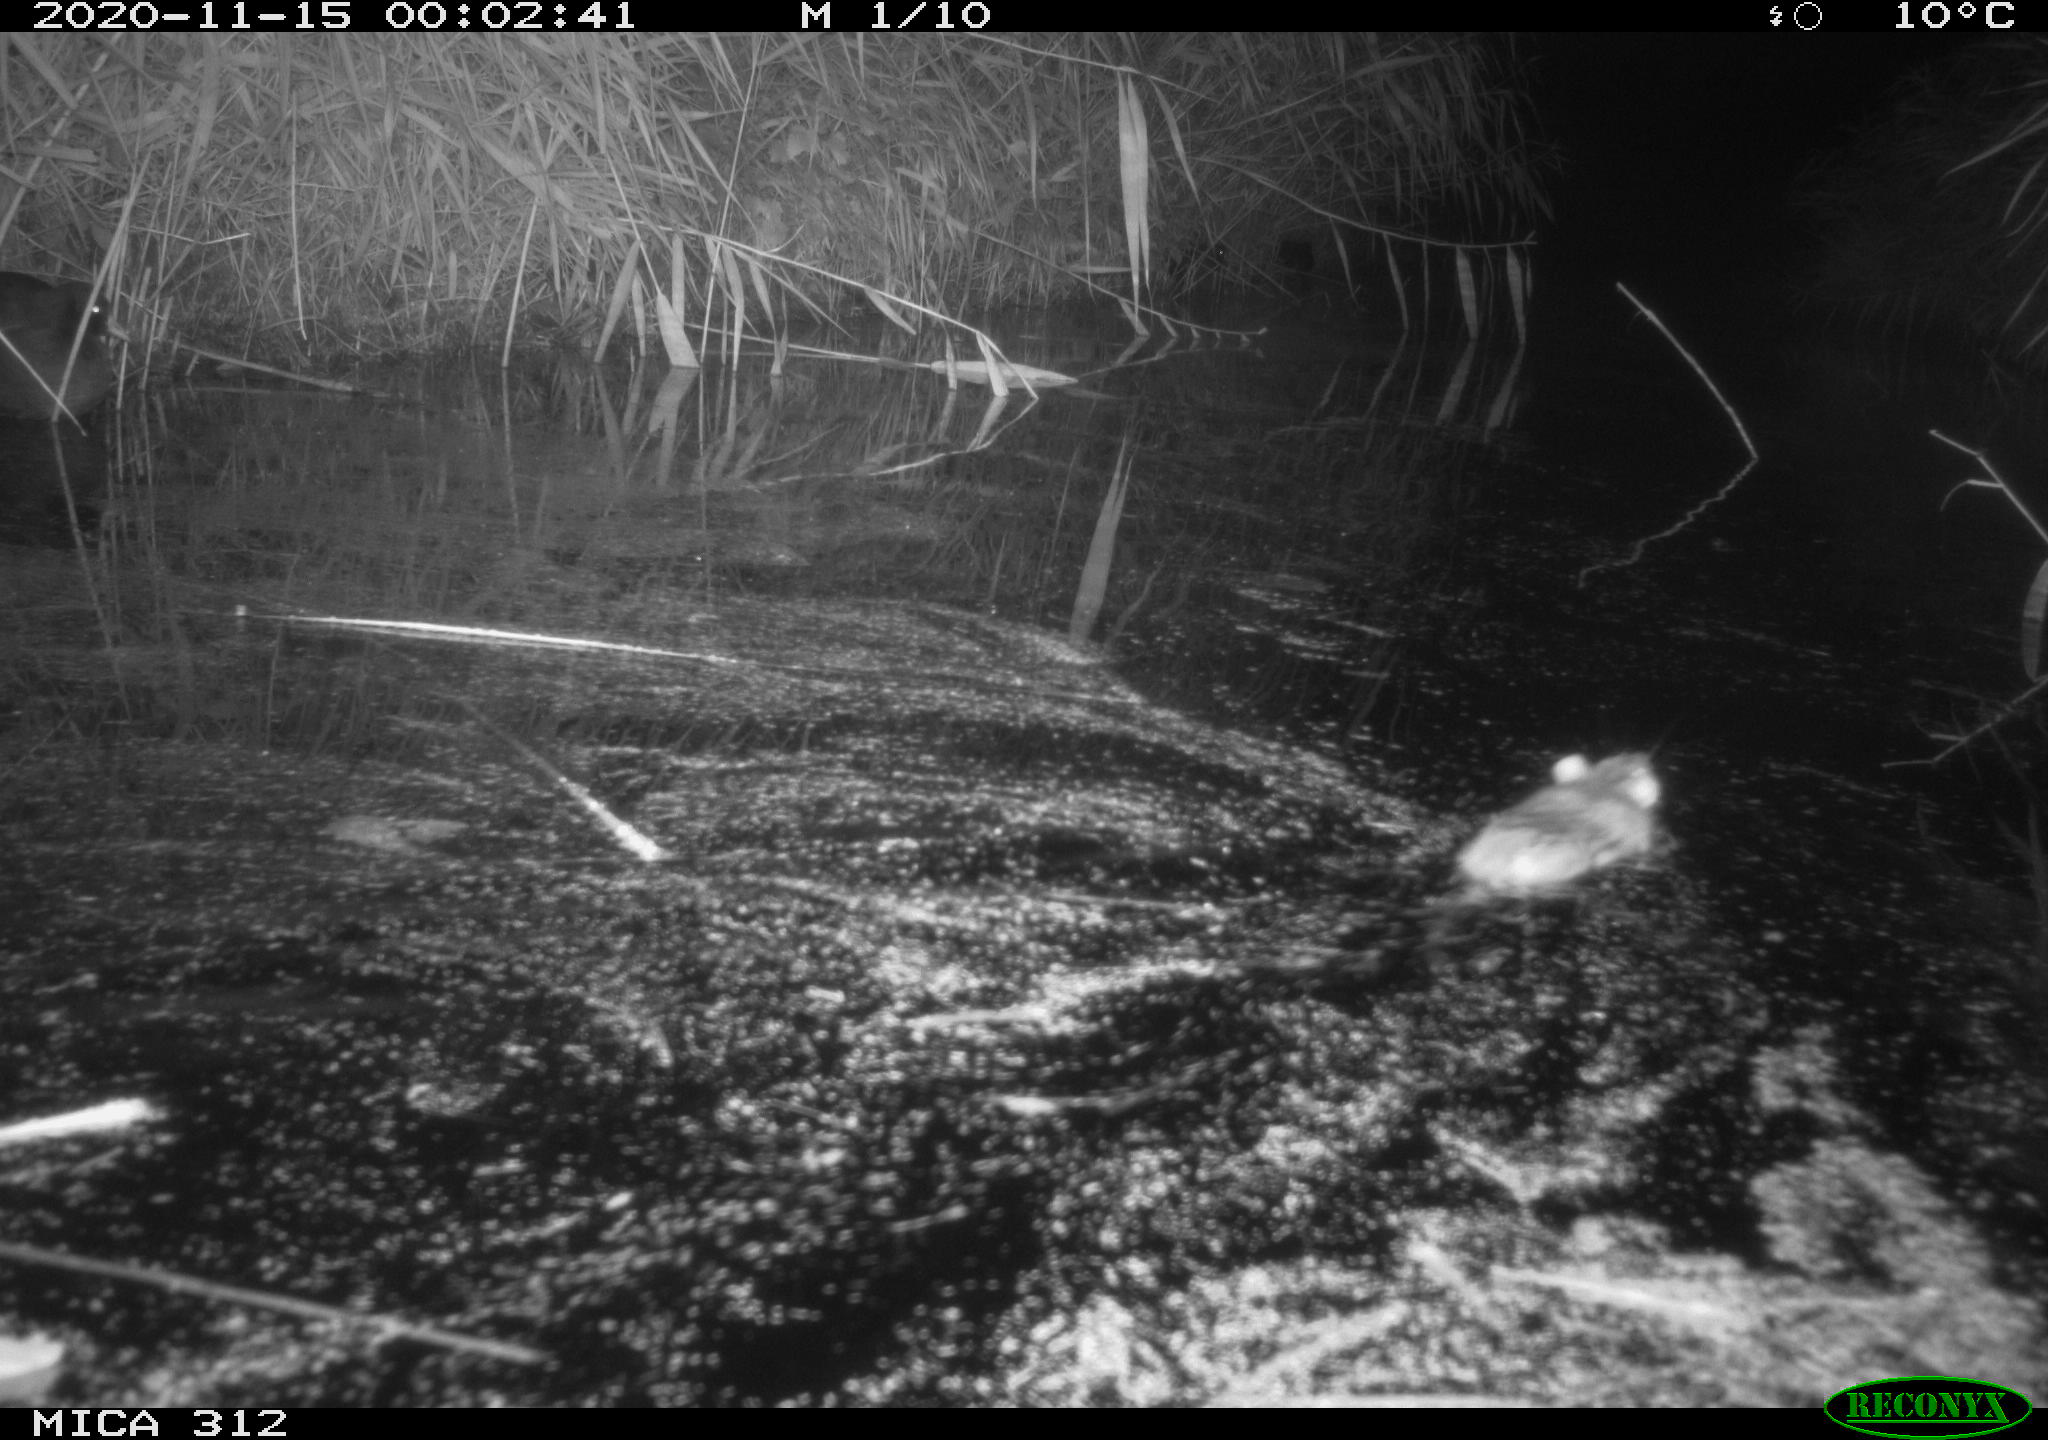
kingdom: Animalia
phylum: Chordata
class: Mammalia
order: Rodentia
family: Muridae
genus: Rattus
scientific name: Rattus norvegicus
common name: Brown rat
